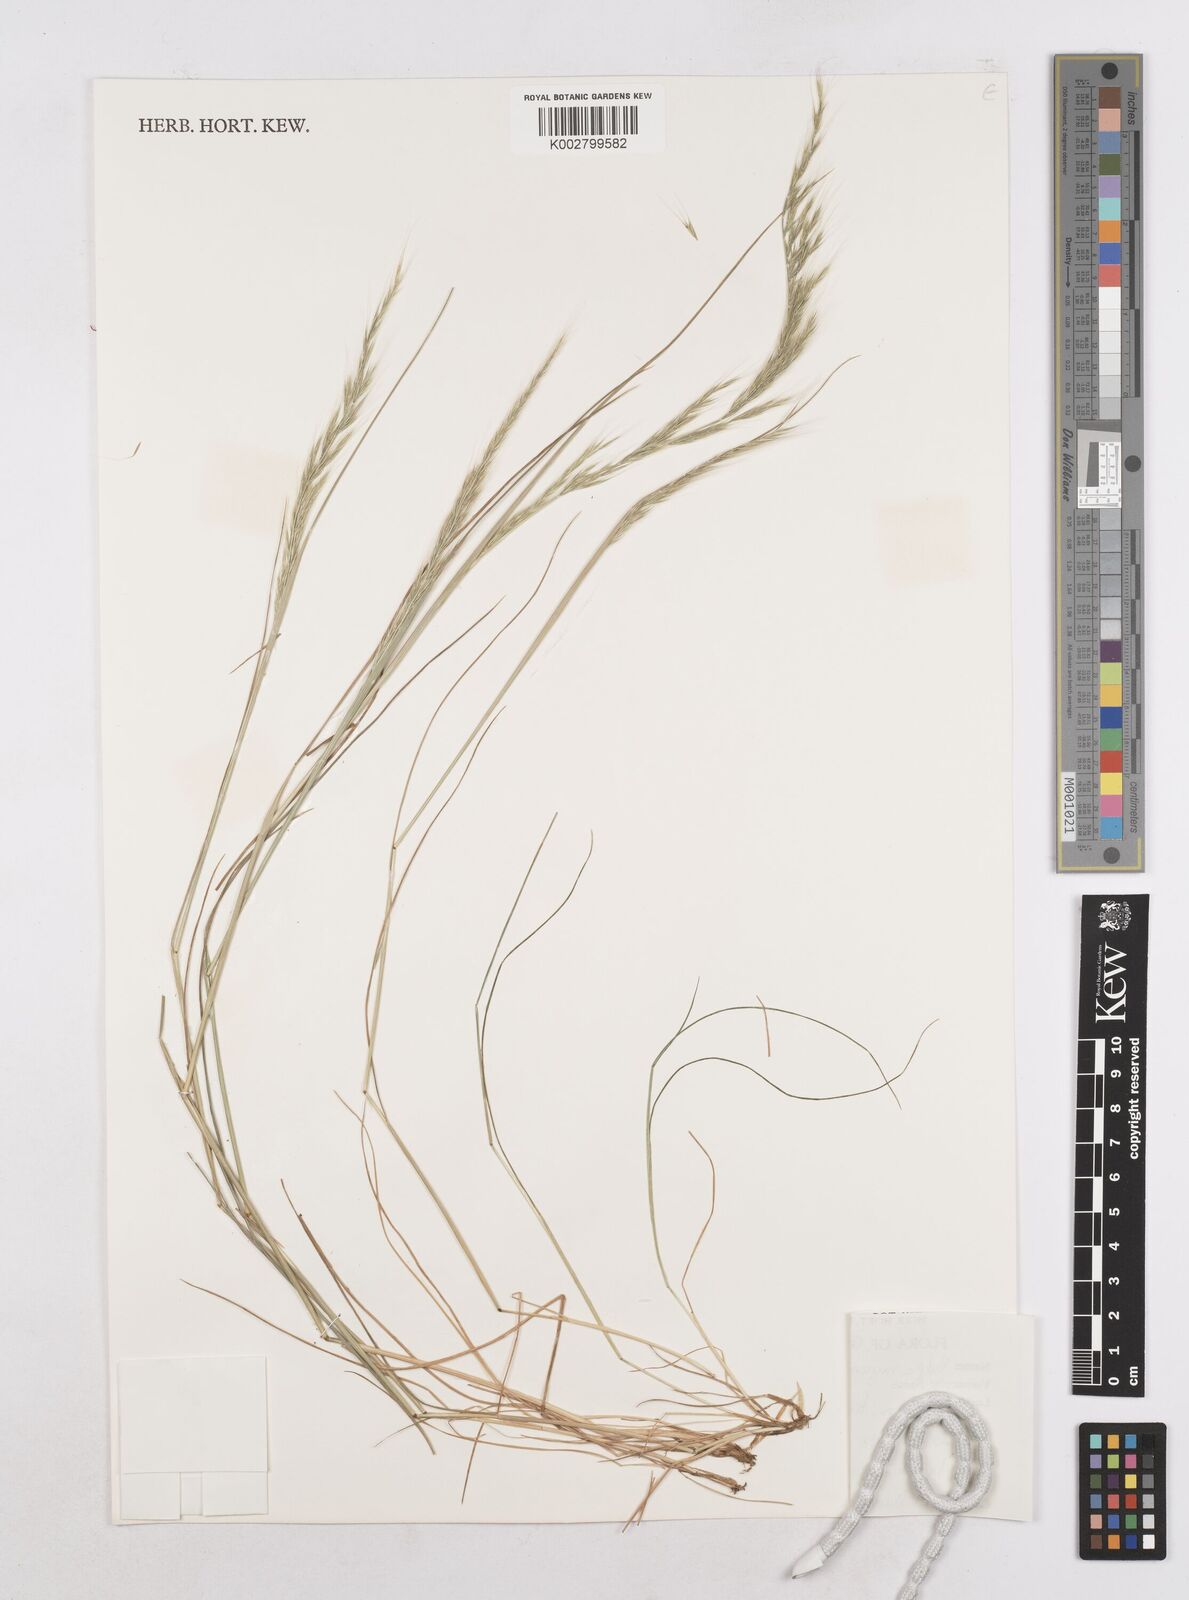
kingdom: Plantae
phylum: Tracheophyta
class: Liliopsida
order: Poales
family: Poaceae
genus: Festuca
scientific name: Festuca myuros
